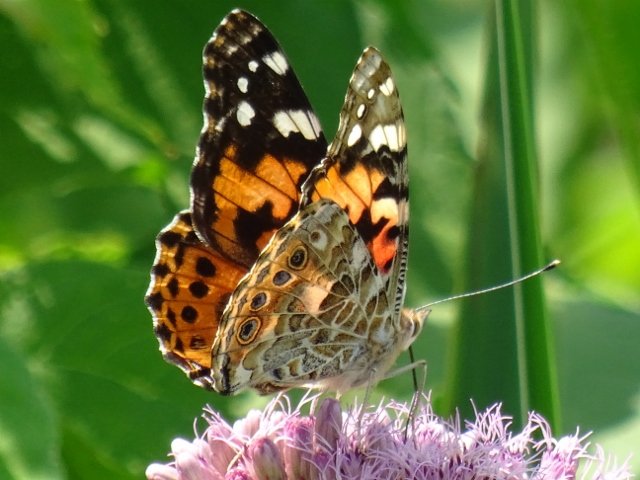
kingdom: Animalia
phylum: Arthropoda
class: Insecta
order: Lepidoptera
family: Nymphalidae
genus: Vanessa
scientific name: Vanessa cardui
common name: Painted Lady
